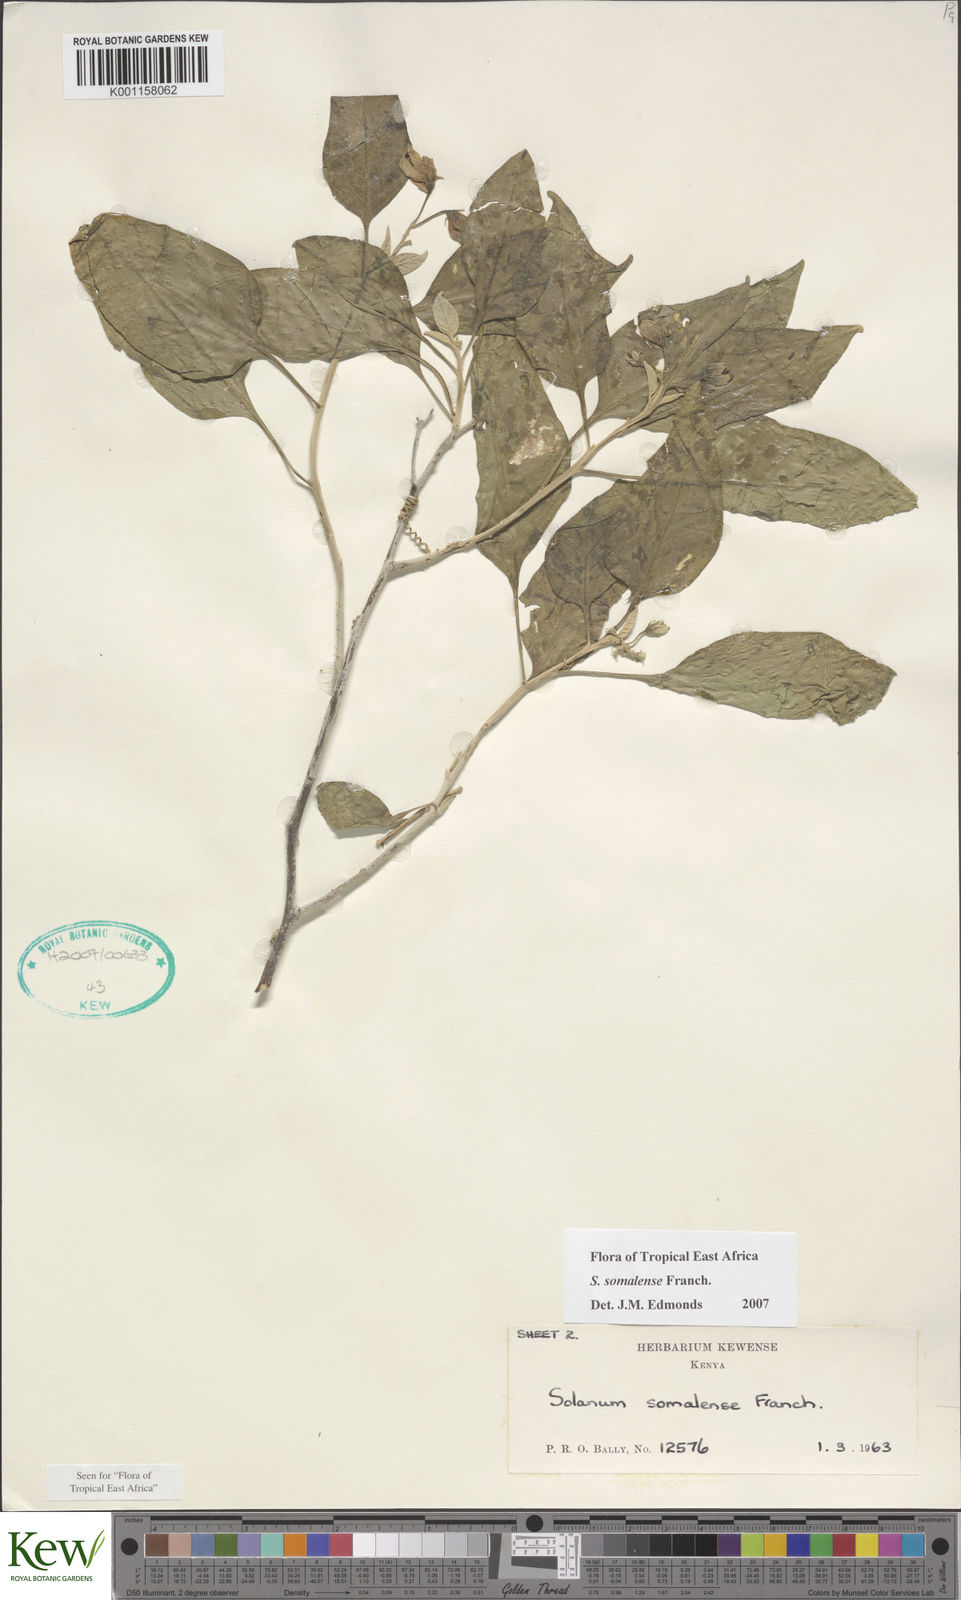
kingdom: Plantae
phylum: Tracheophyta
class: Magnoliopsida
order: Solanales
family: Solanaceae
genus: Solanum
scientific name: Solanum somalense
